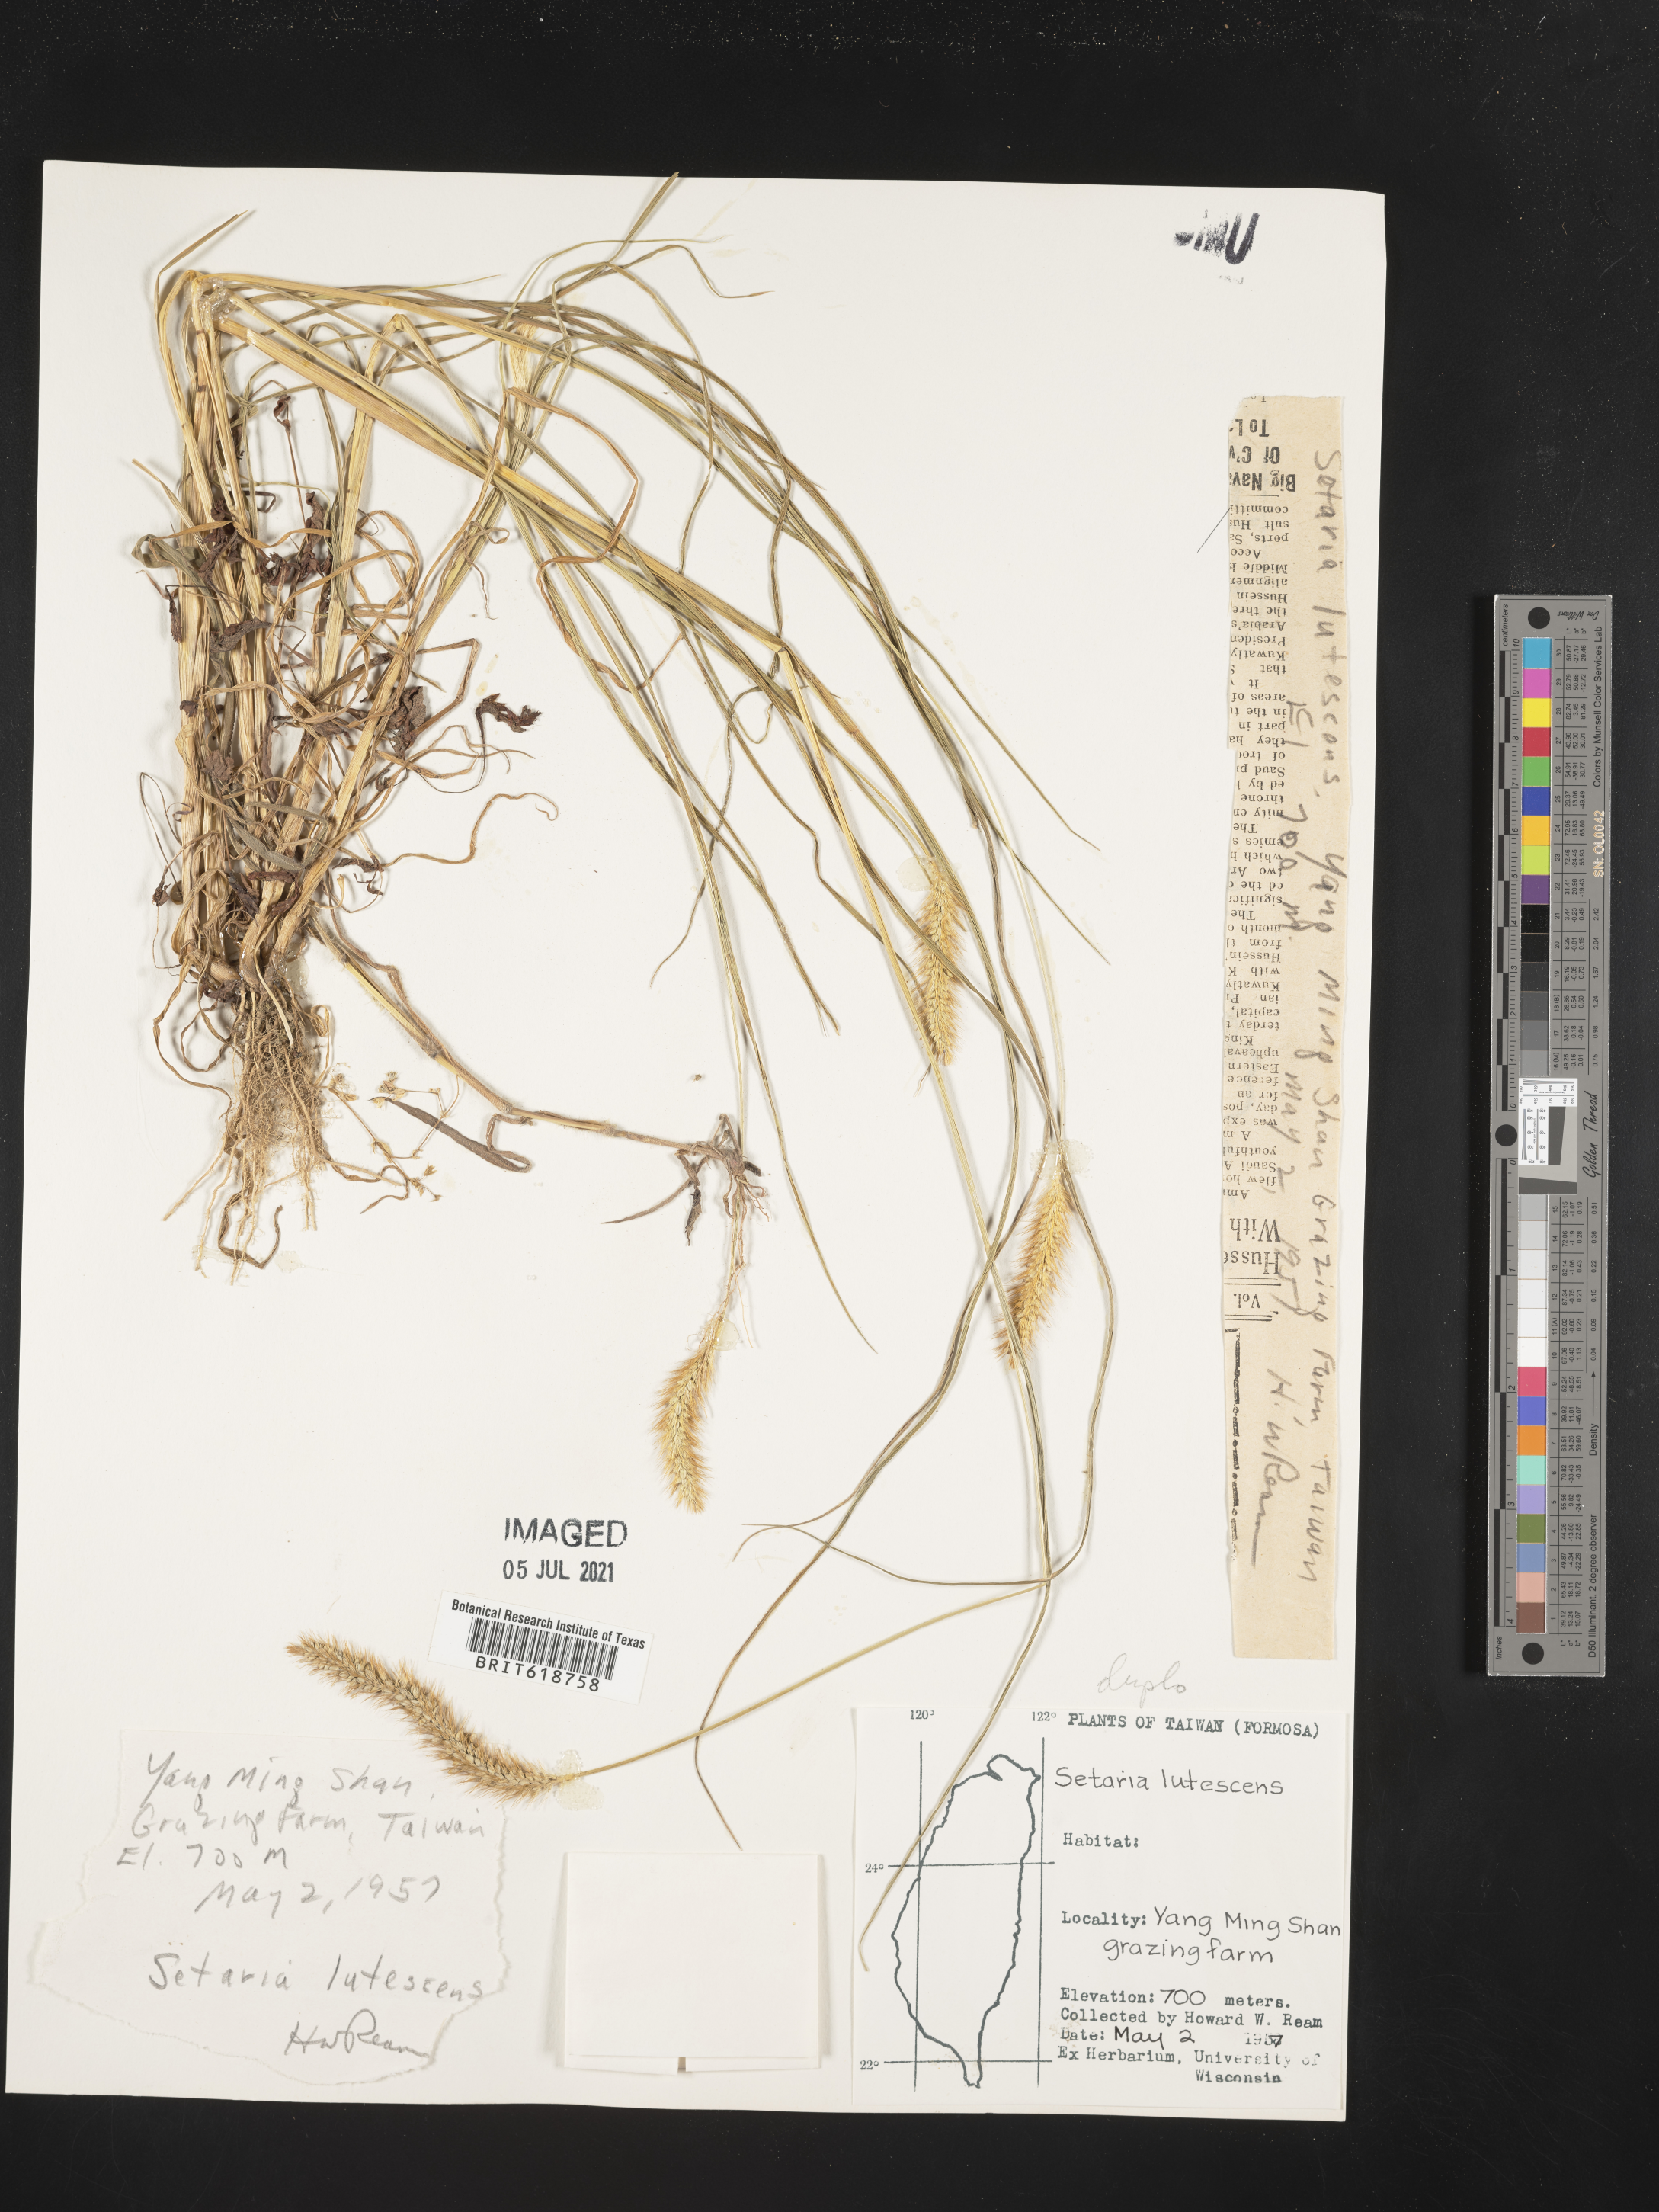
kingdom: Plantae
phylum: Tracheophyta
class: Liliopsida
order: Poales
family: Poaceae
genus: Cenchrus
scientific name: Cenchrus americanus
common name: Pearl millet
